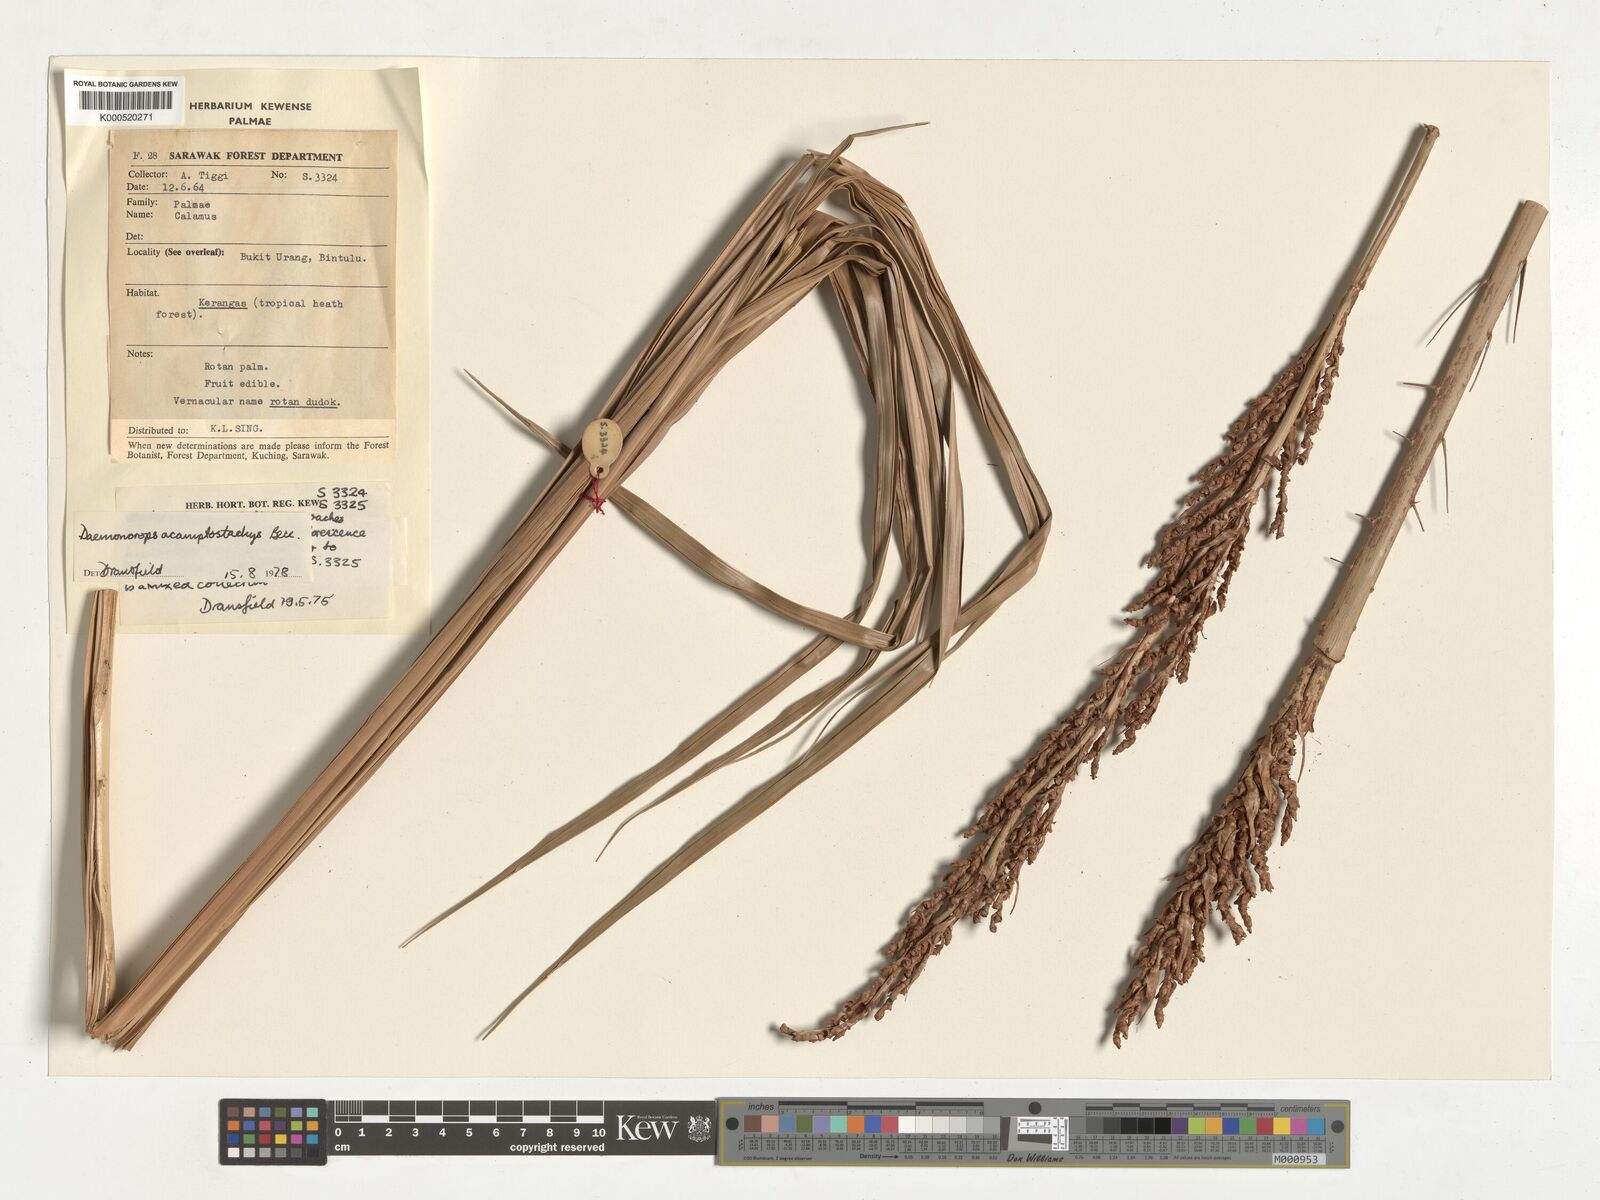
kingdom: Plantae
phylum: Tracheophyta
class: Liliopsida
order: Arecales
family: Arecaceae
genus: Calamus
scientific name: Calamus acamptostachys
